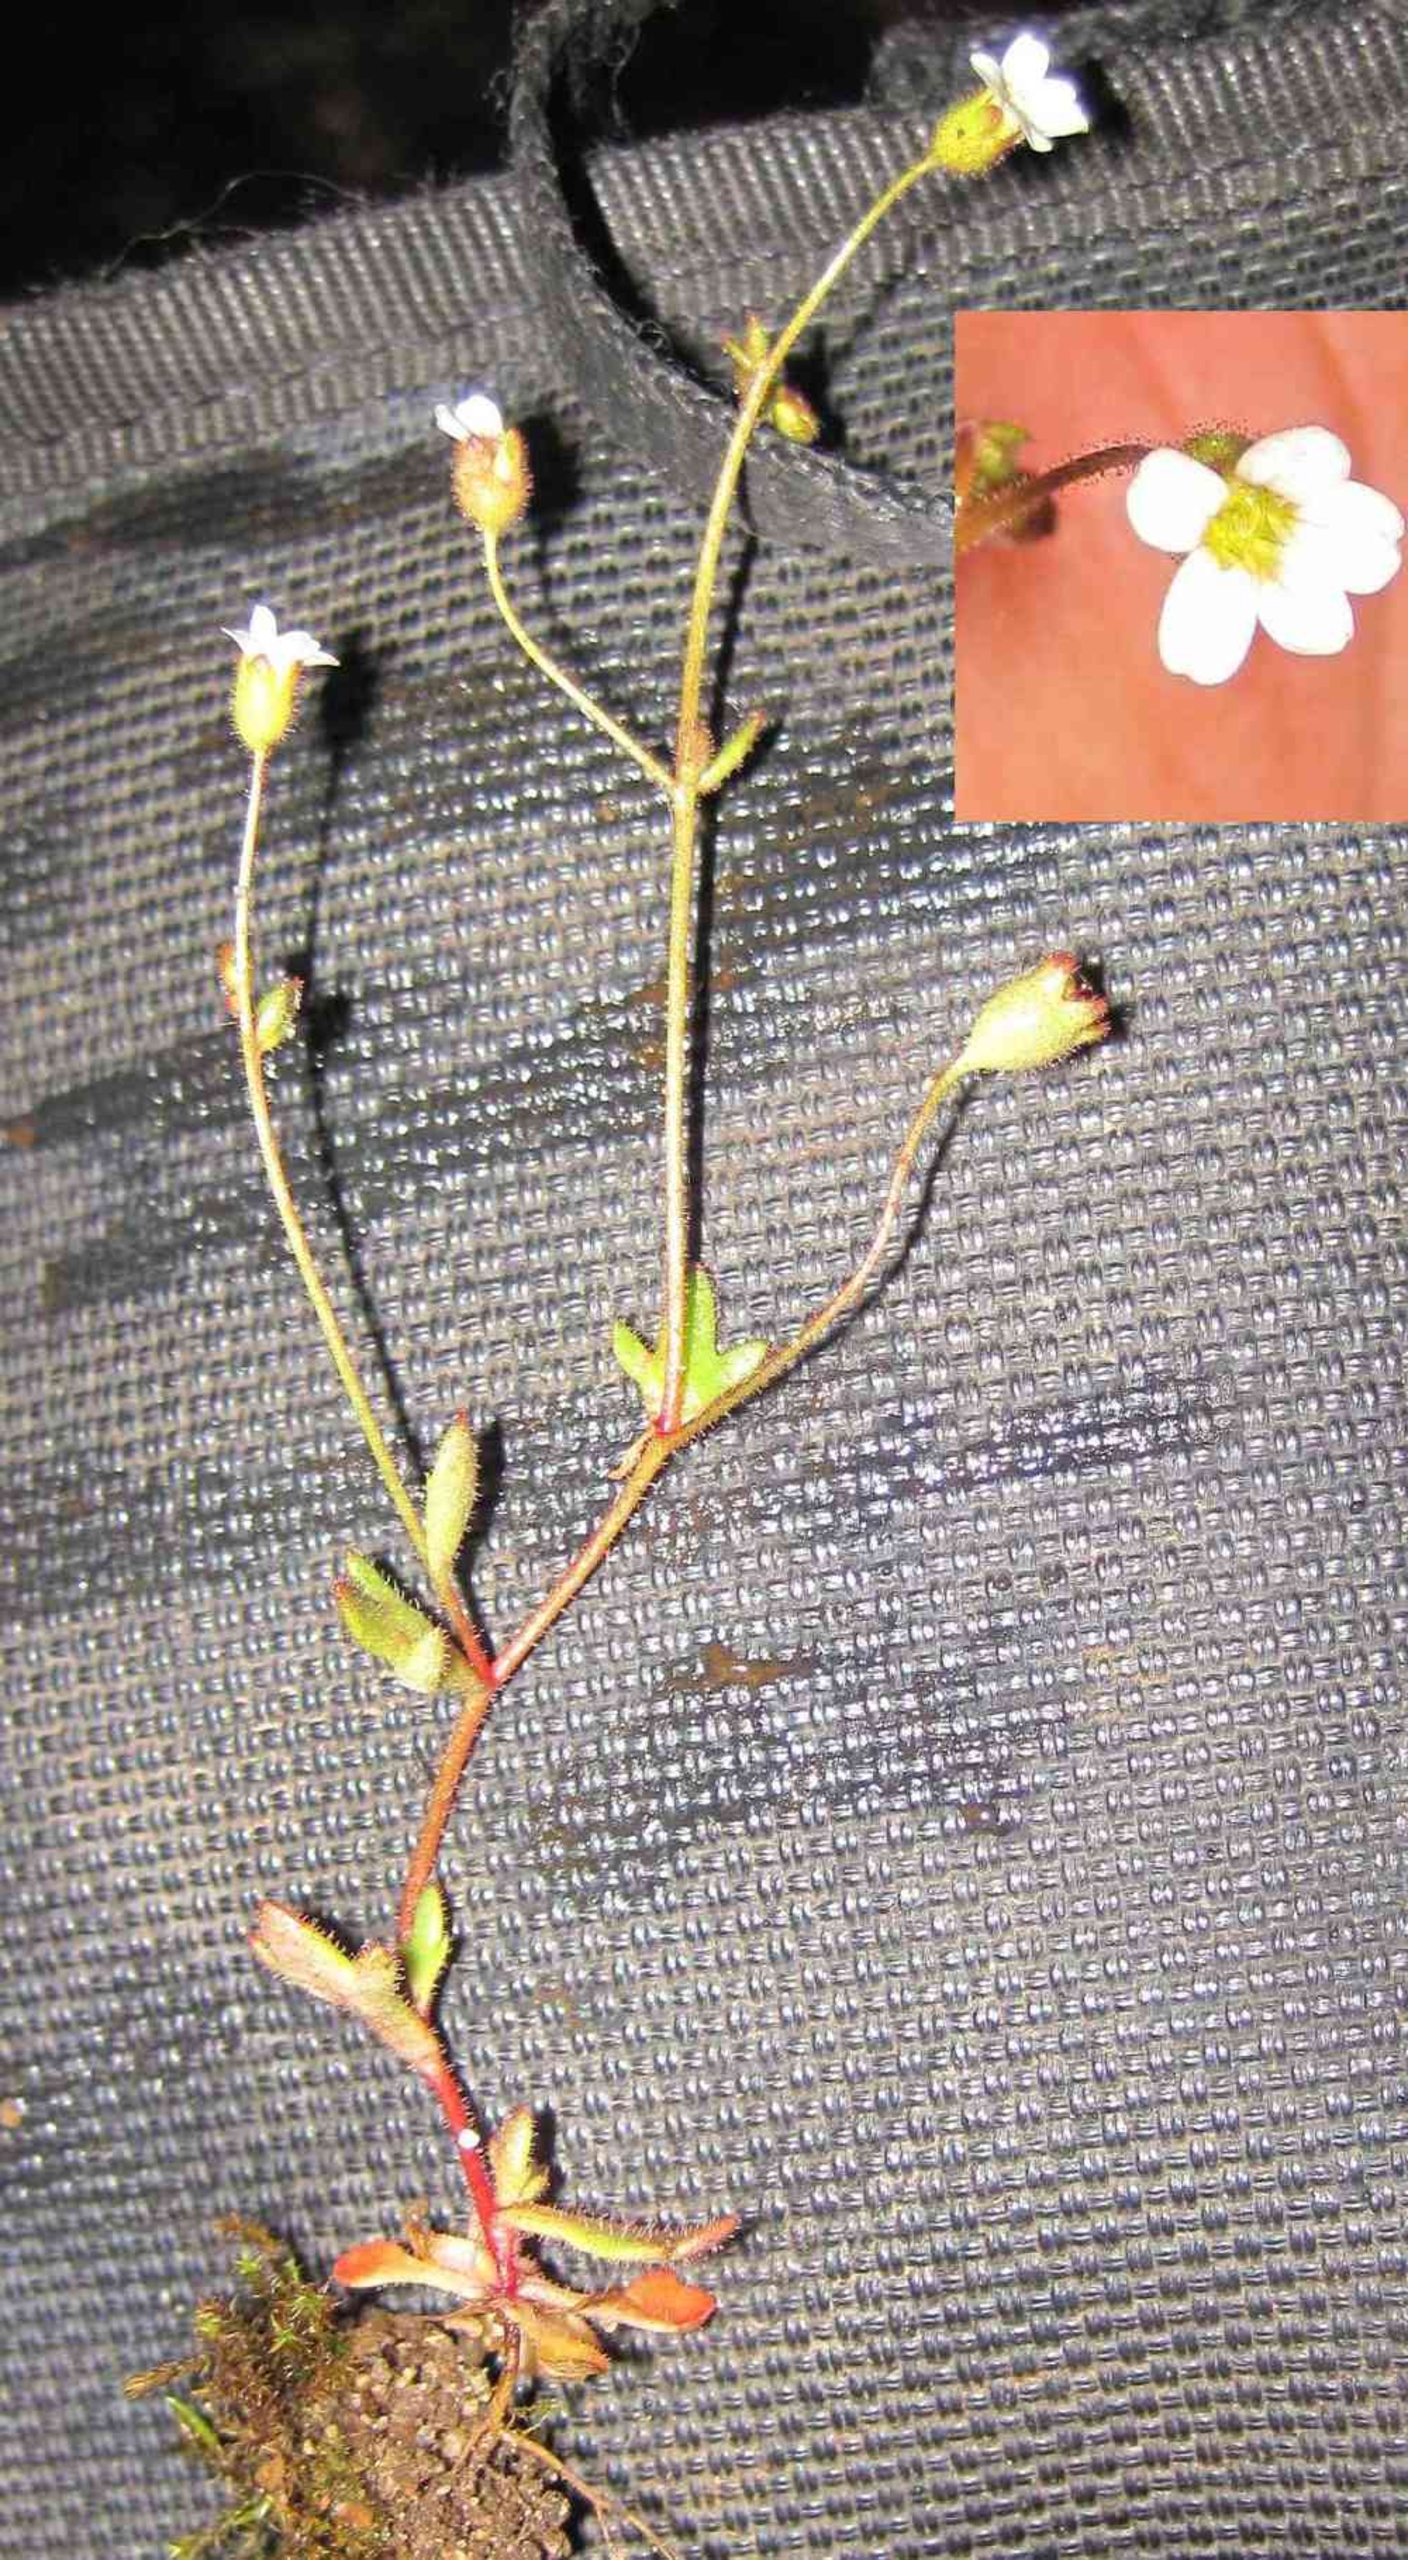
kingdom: Plantae
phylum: Tracheophyta
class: Magnoliopsida
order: Saxifragales
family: Saxifragaceae
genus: Saxifraga
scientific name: Saxifraga tridactylites
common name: Trekløft-stenbræk
